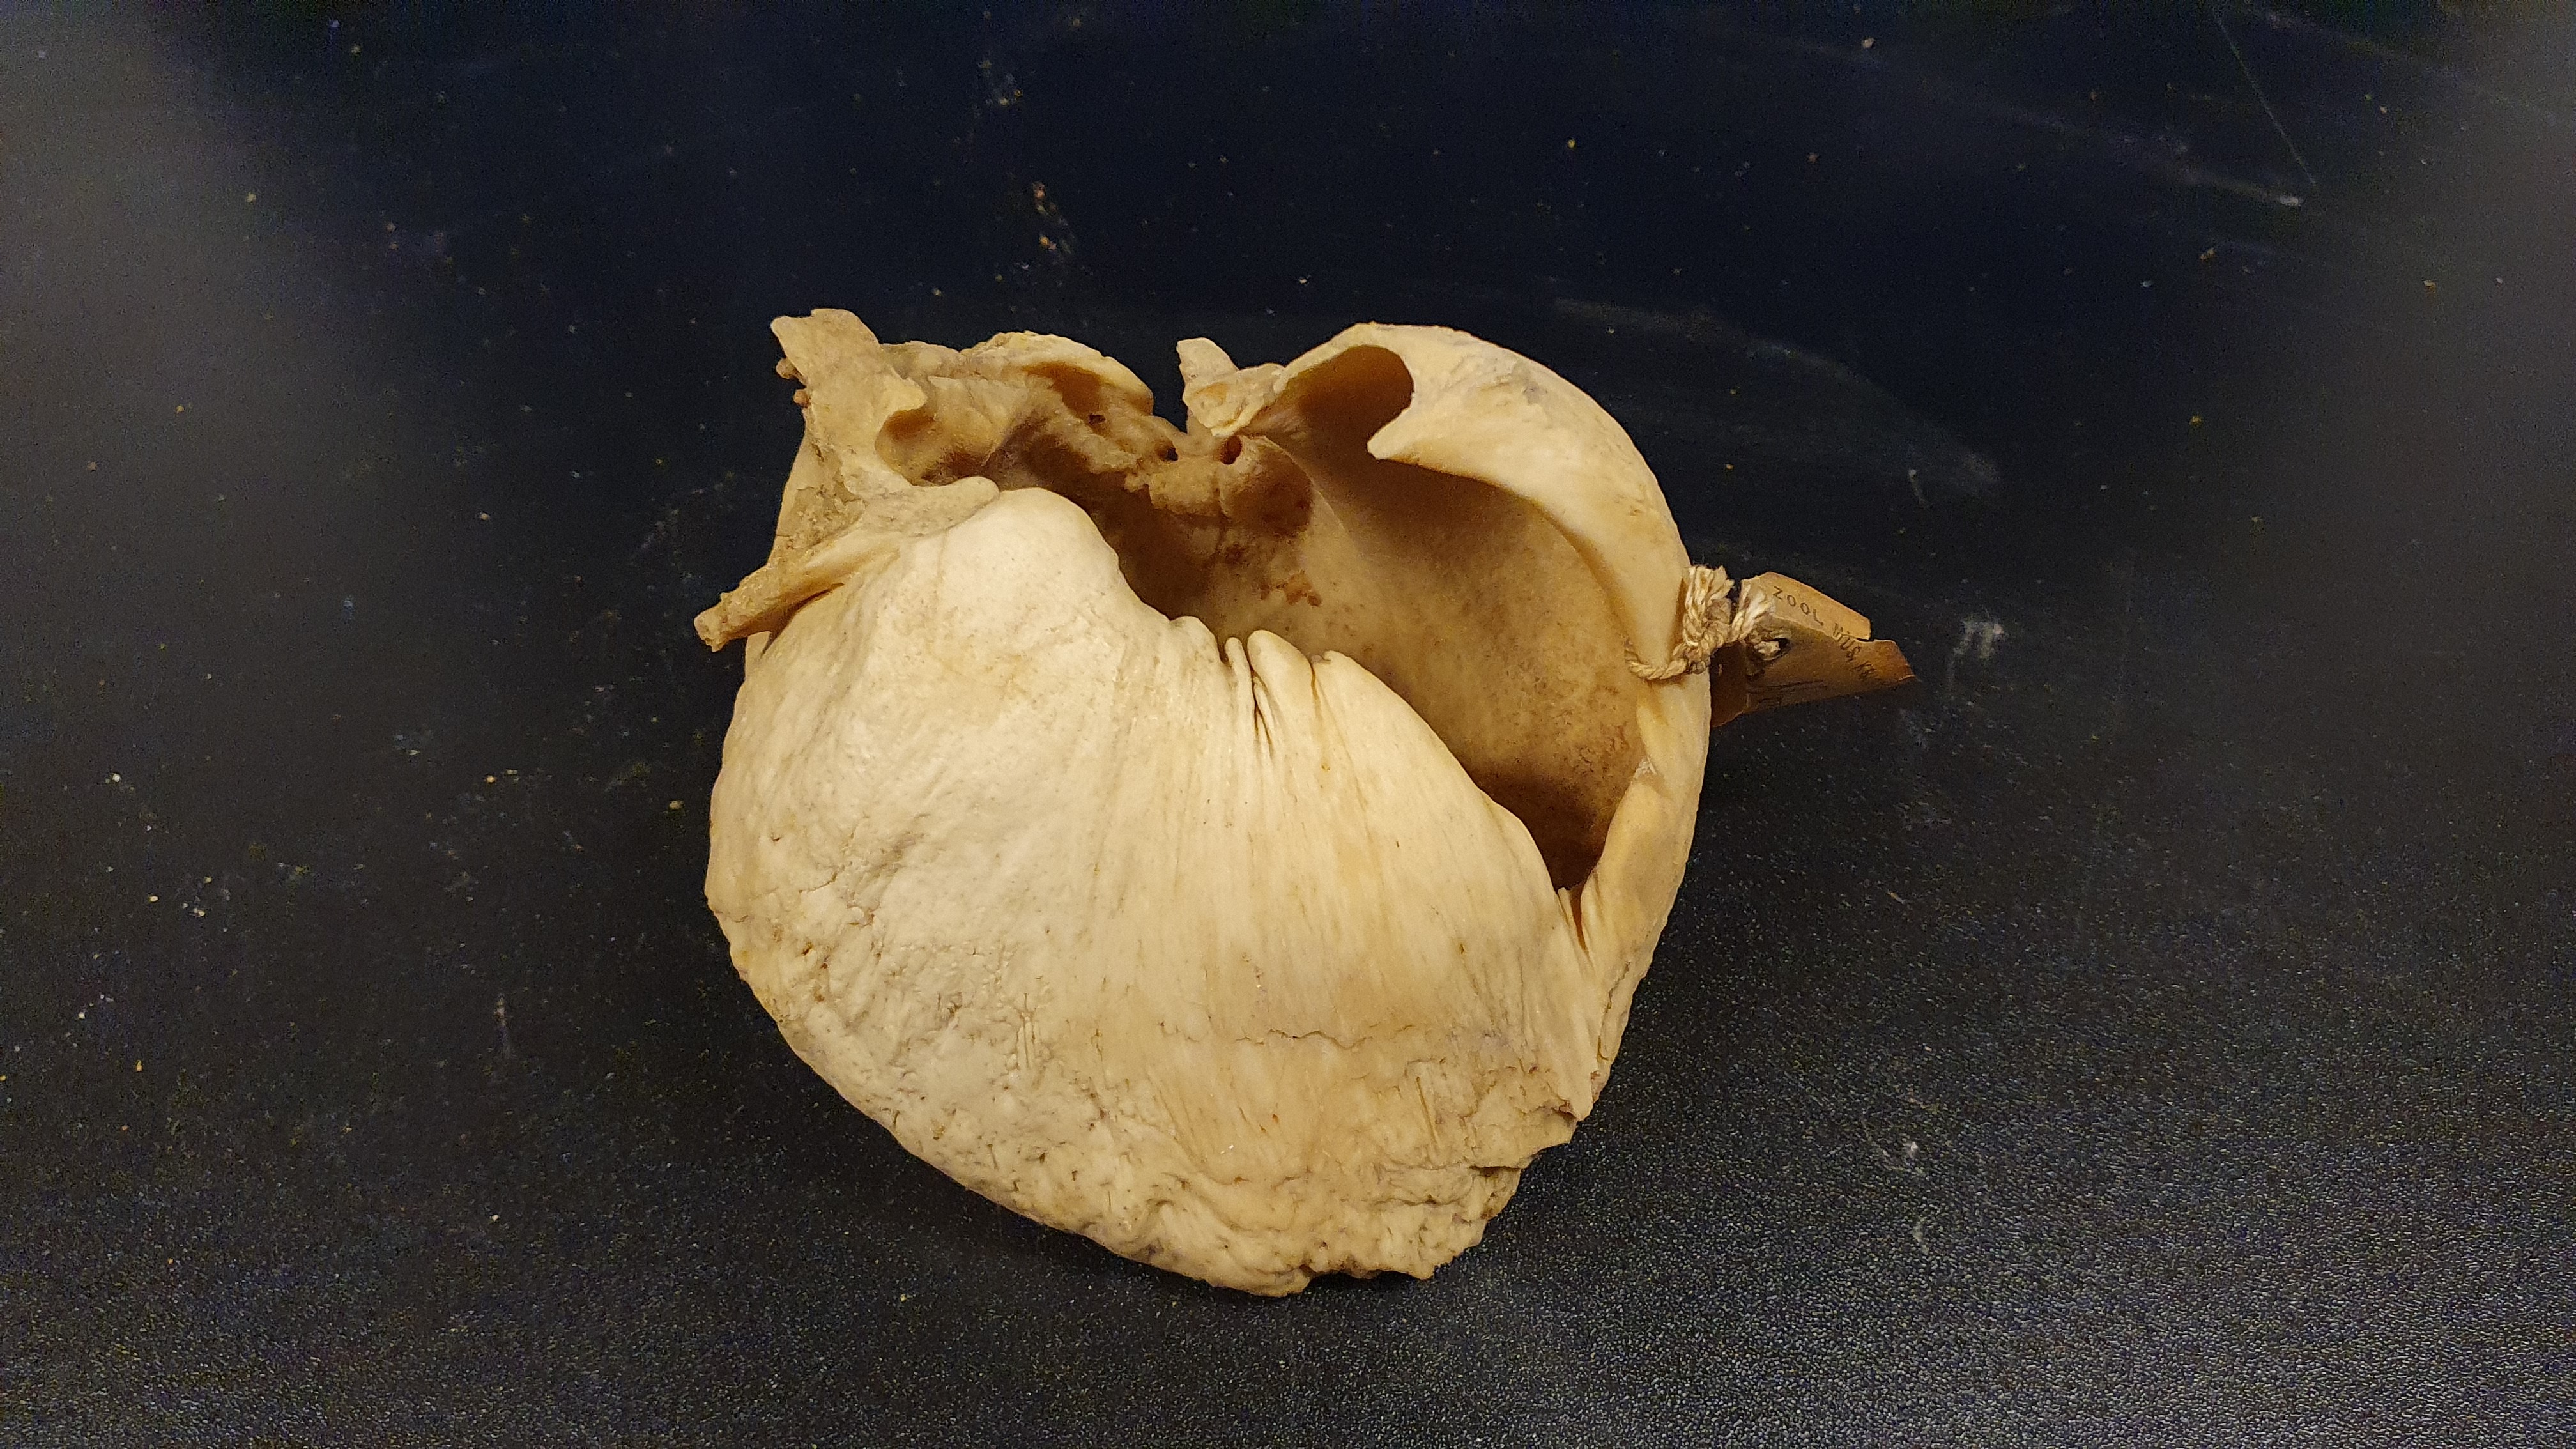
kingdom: Animalia
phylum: Chordata
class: Mammalia
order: Cetacea
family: Balaenidae
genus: Eubalaena
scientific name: Eubalaena glacialis
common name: North atlantic right whale
